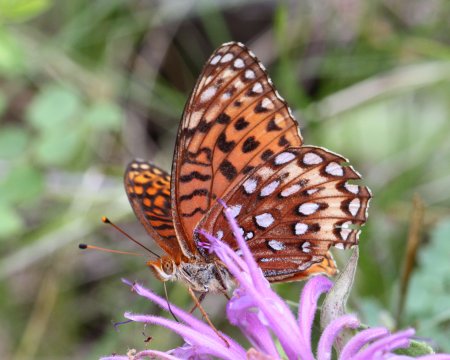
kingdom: Animalia
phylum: Arthropoda
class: Insecta
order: Lepidoptera
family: Nymphalidae
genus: Speyeria
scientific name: Speyeria atlantis
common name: Atlantis Fritillary
